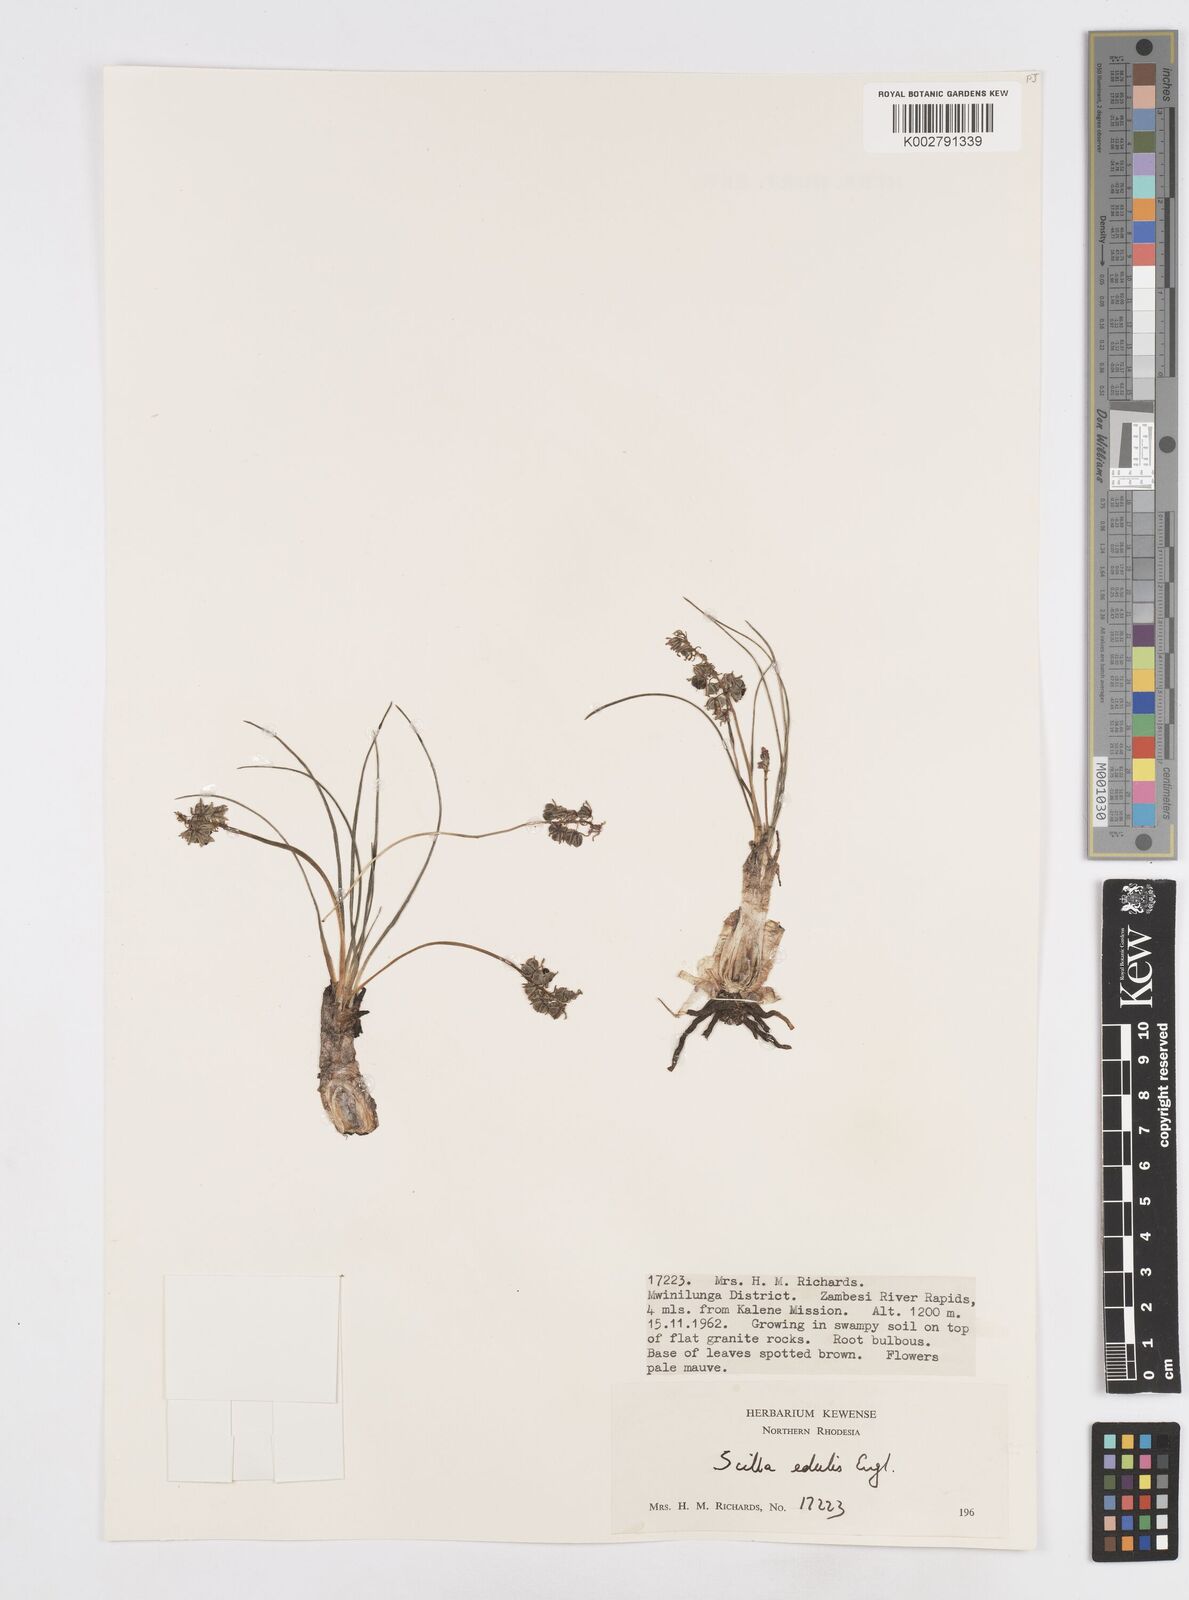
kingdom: Plantae
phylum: Tracheophyta
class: Liliopsida
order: Asparagales
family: Asparagaceae
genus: Ledebouria
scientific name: Ledebouria edulis
